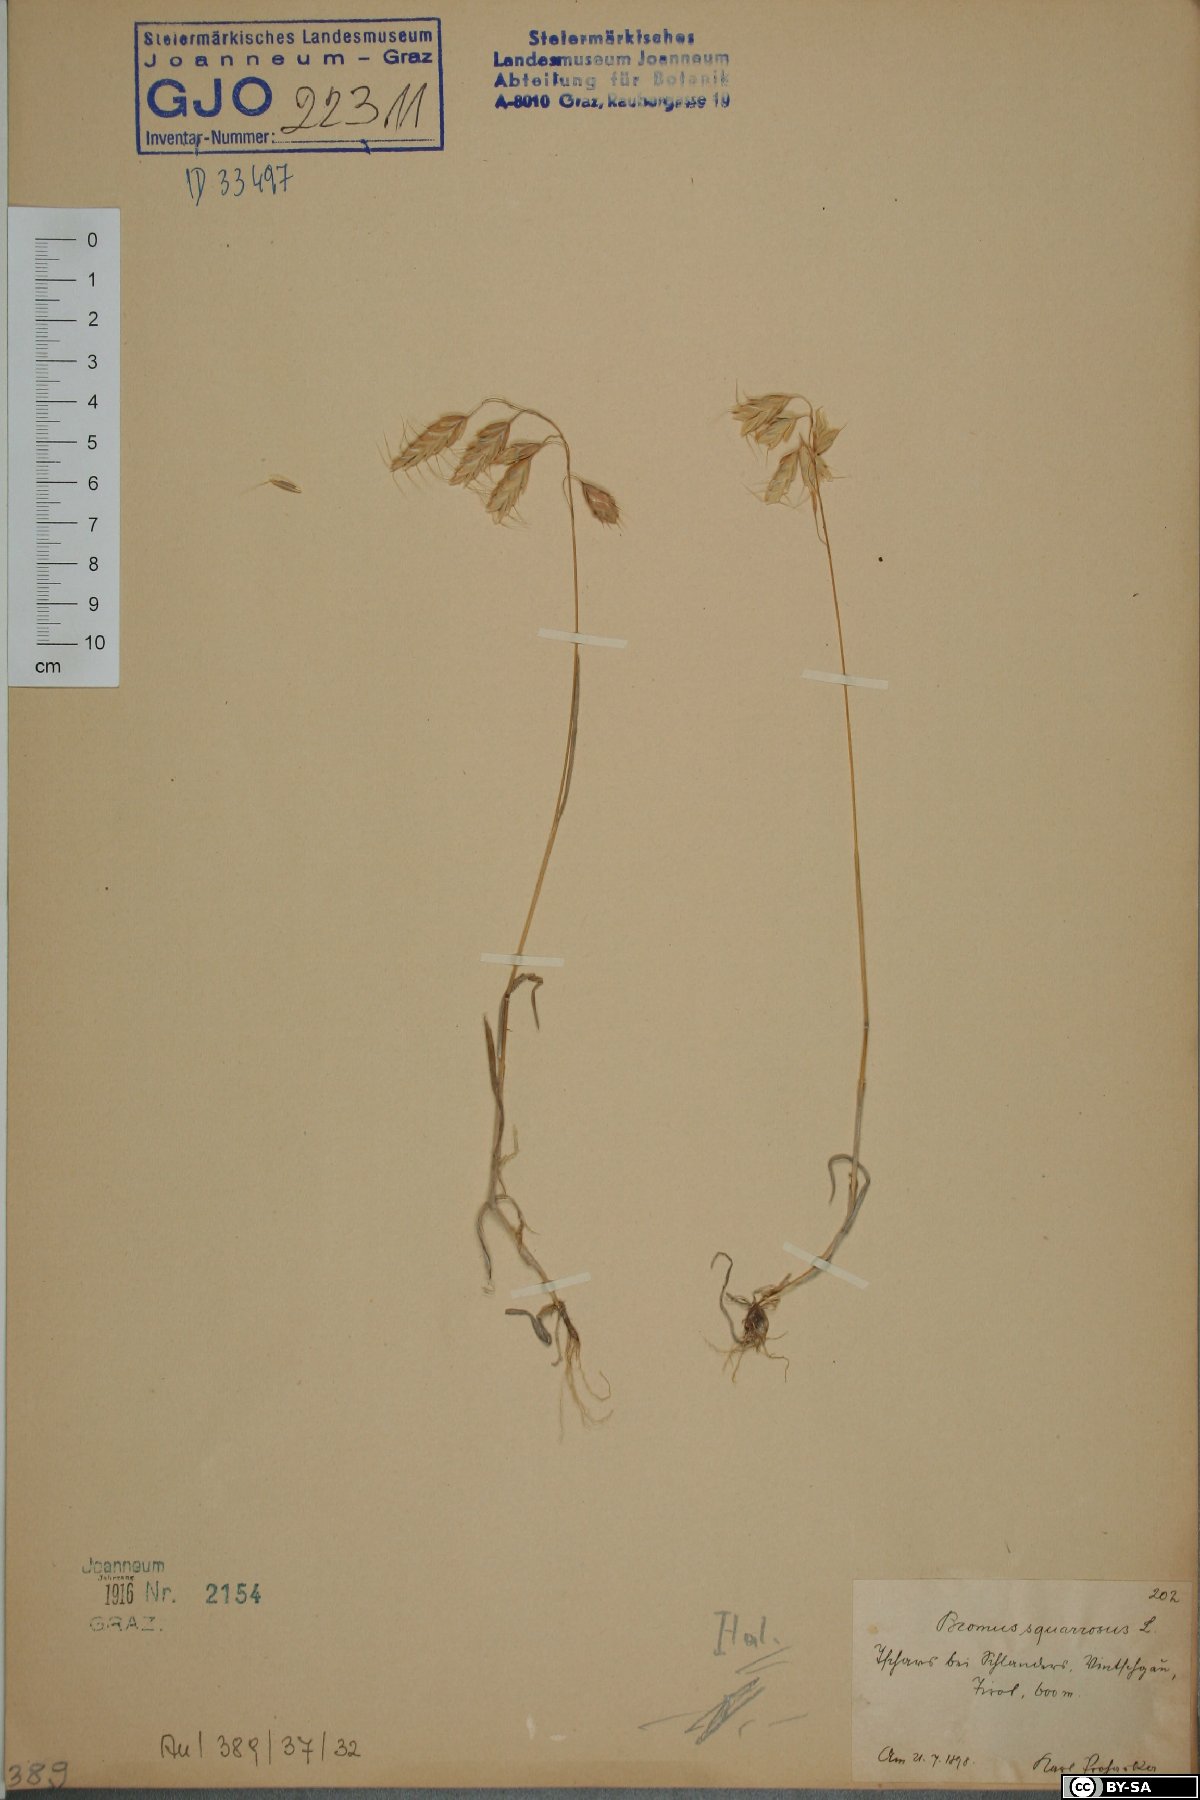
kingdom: Plantae
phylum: Tracheophyta
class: Liliopsida
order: Poales
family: Poaceae
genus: Bromus
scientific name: Bromus squarrosus
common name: Corn brome
